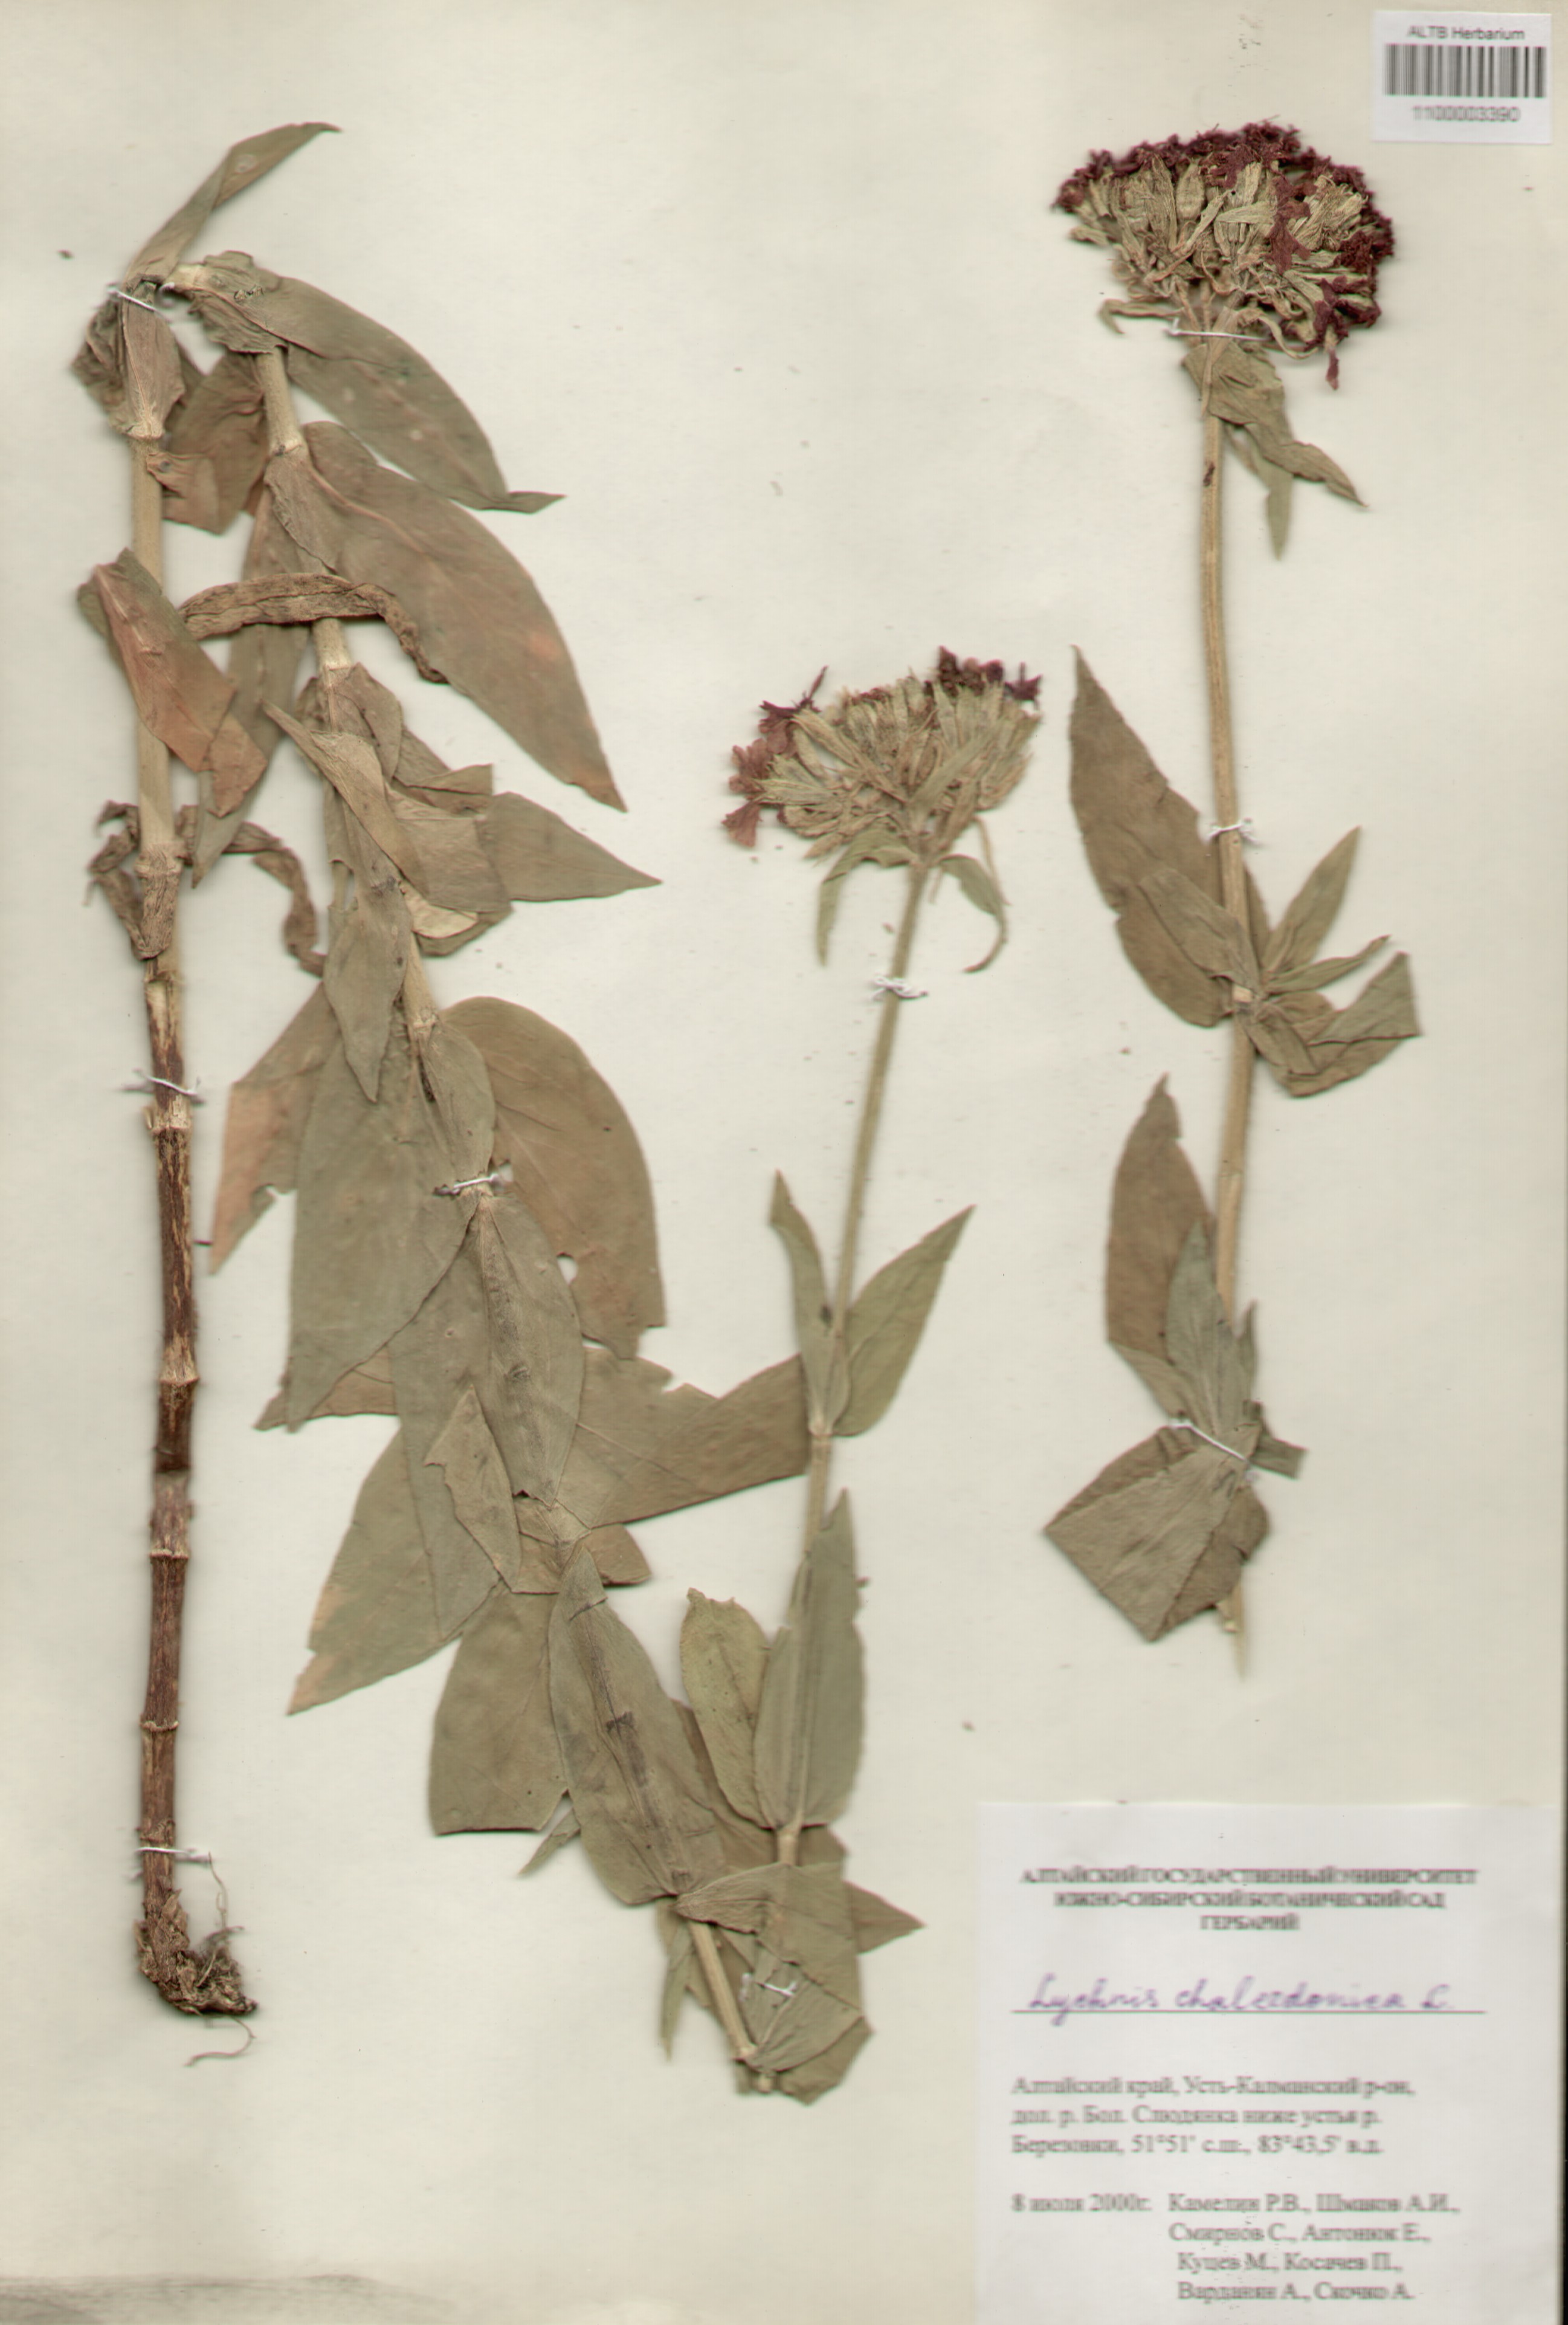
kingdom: Plantae
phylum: Tracheophyta
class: Magnoliopsida
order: Caryophyllales
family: Caryophyllaceae
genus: Silene
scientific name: Silene chalcedonica
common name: Maltese-cross
